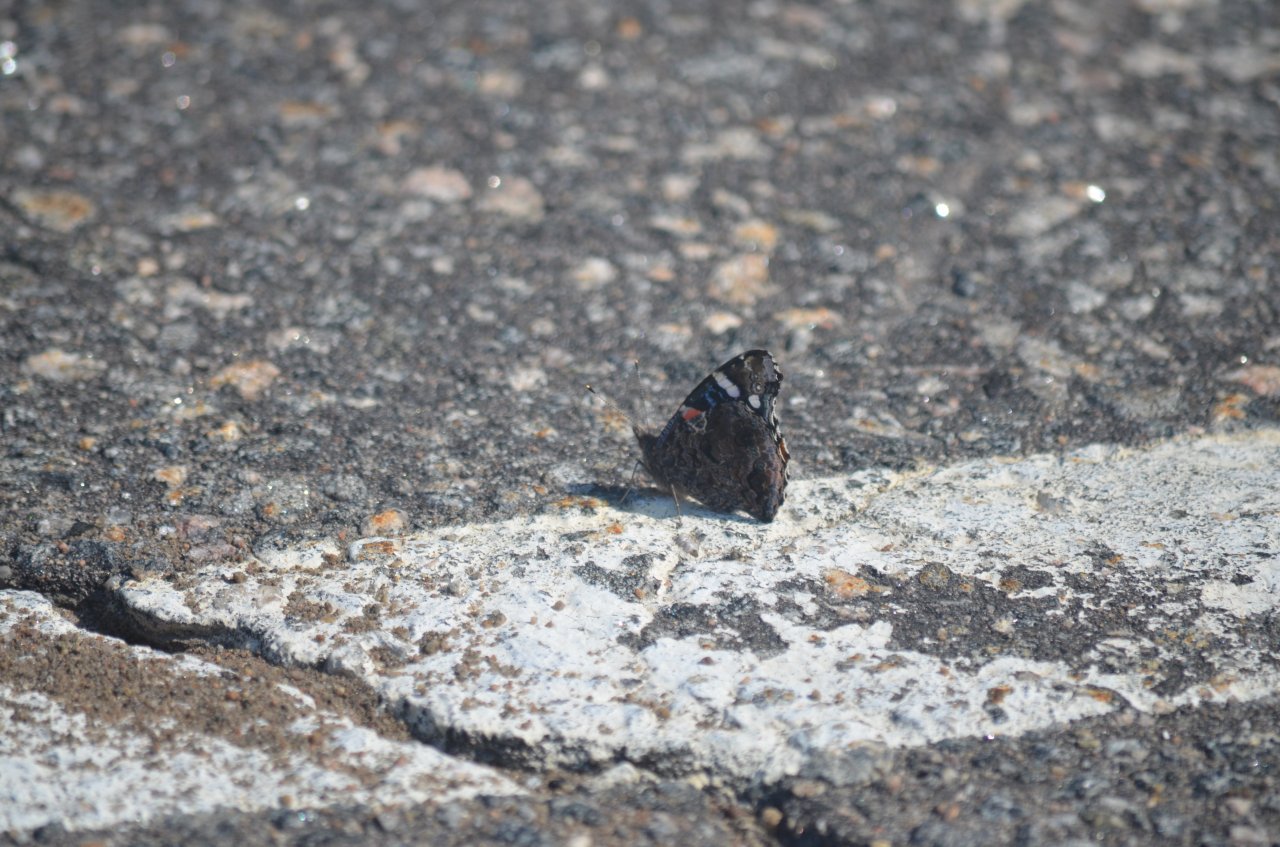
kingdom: Animalia
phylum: Arthropoda
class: Insecta
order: Lepidoptera
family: Nymphalidae
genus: Vanessa
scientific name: Vanessa atalanta
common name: Red Admiral
